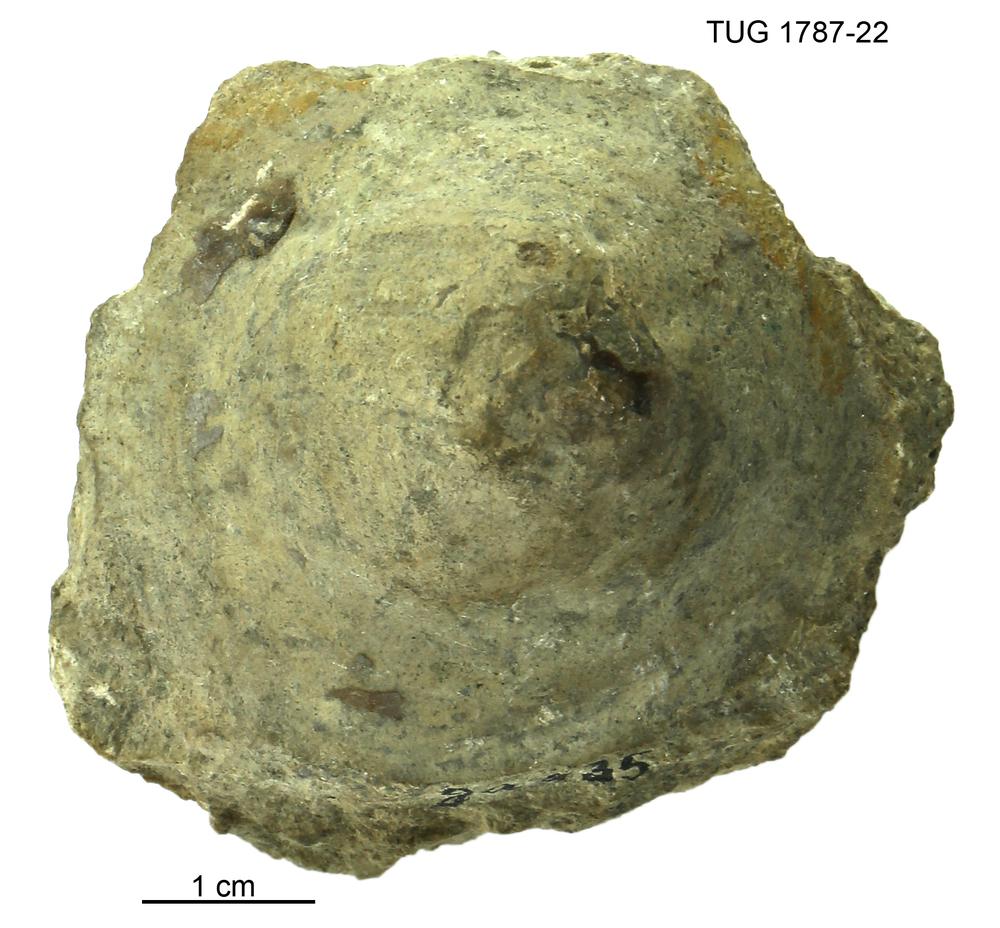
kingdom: Animalia
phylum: Mollusca
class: Monoplacophora
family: Metoptomatidae
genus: Metoptoma
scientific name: Metoptoma
